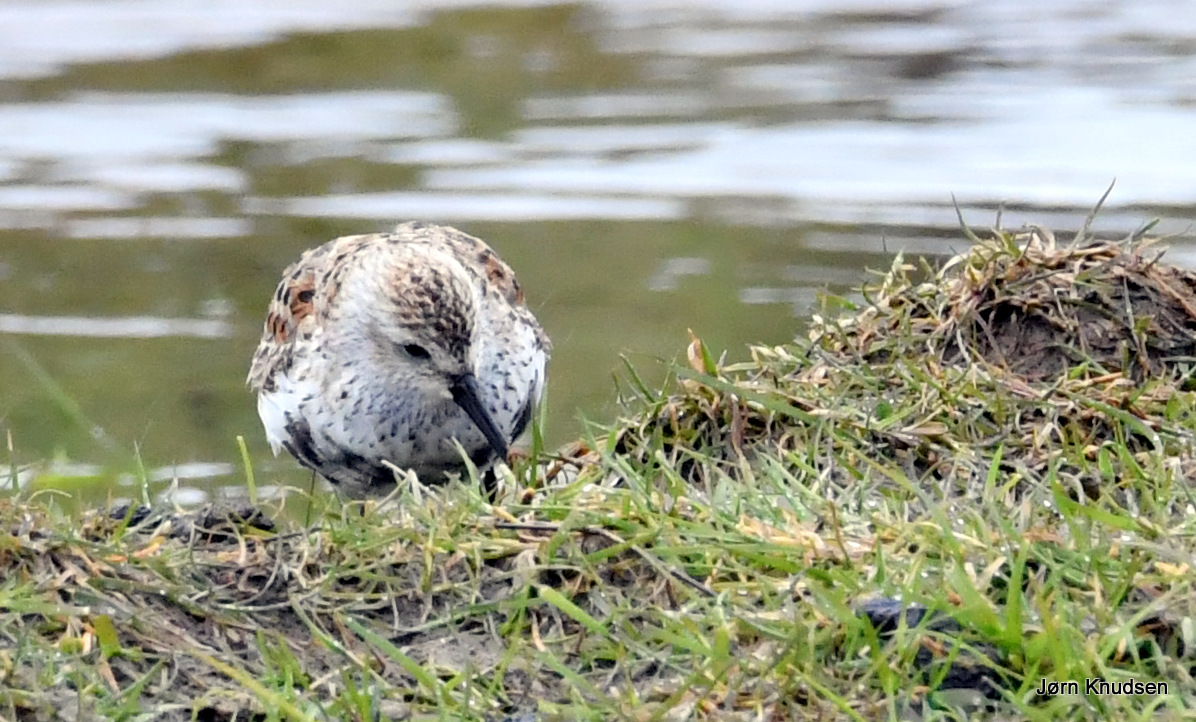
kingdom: Animalia
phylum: Chordata
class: Aves
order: Charadriiformes
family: Scolopacidae
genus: Calidris
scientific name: Calidris alpina
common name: Almindelig ryle
